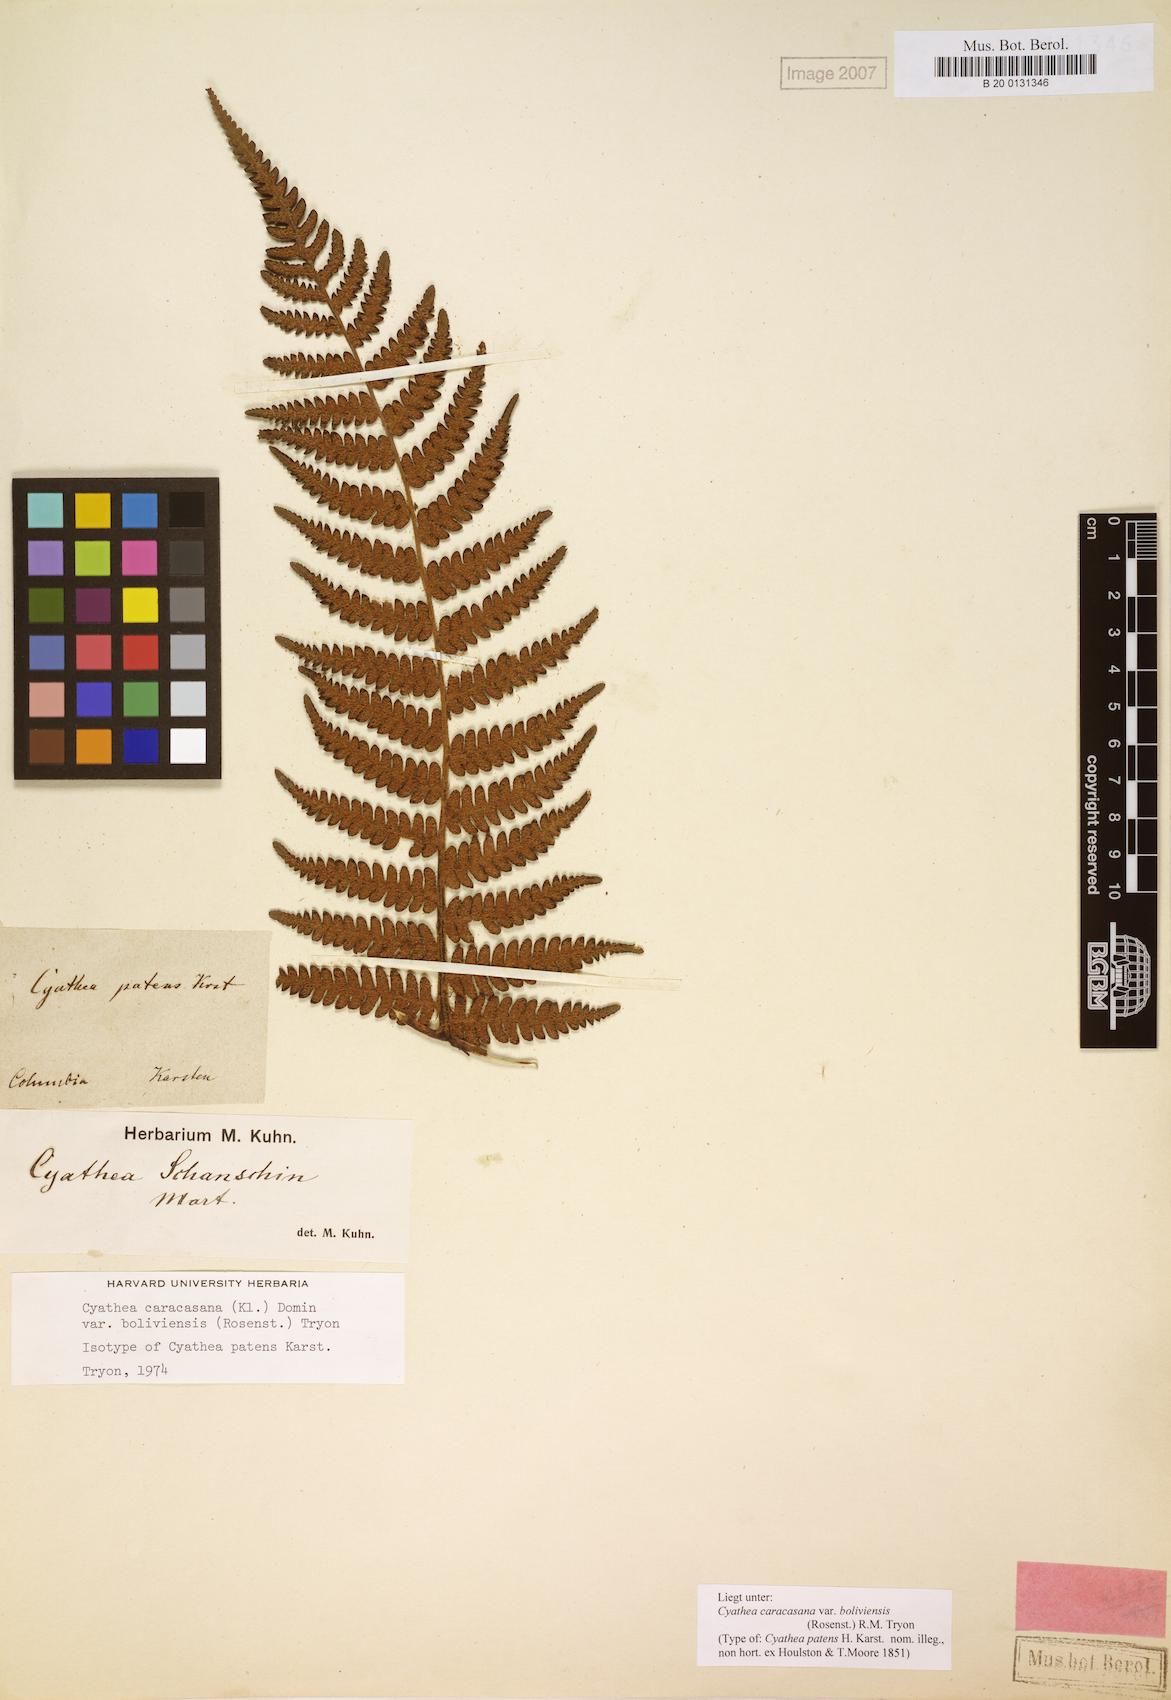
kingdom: Plantae
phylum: Tracheophyta
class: Polypodiopsida
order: Cyatheales
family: Cyatheaceae
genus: Cyathea
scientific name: Cyathea squamipes
